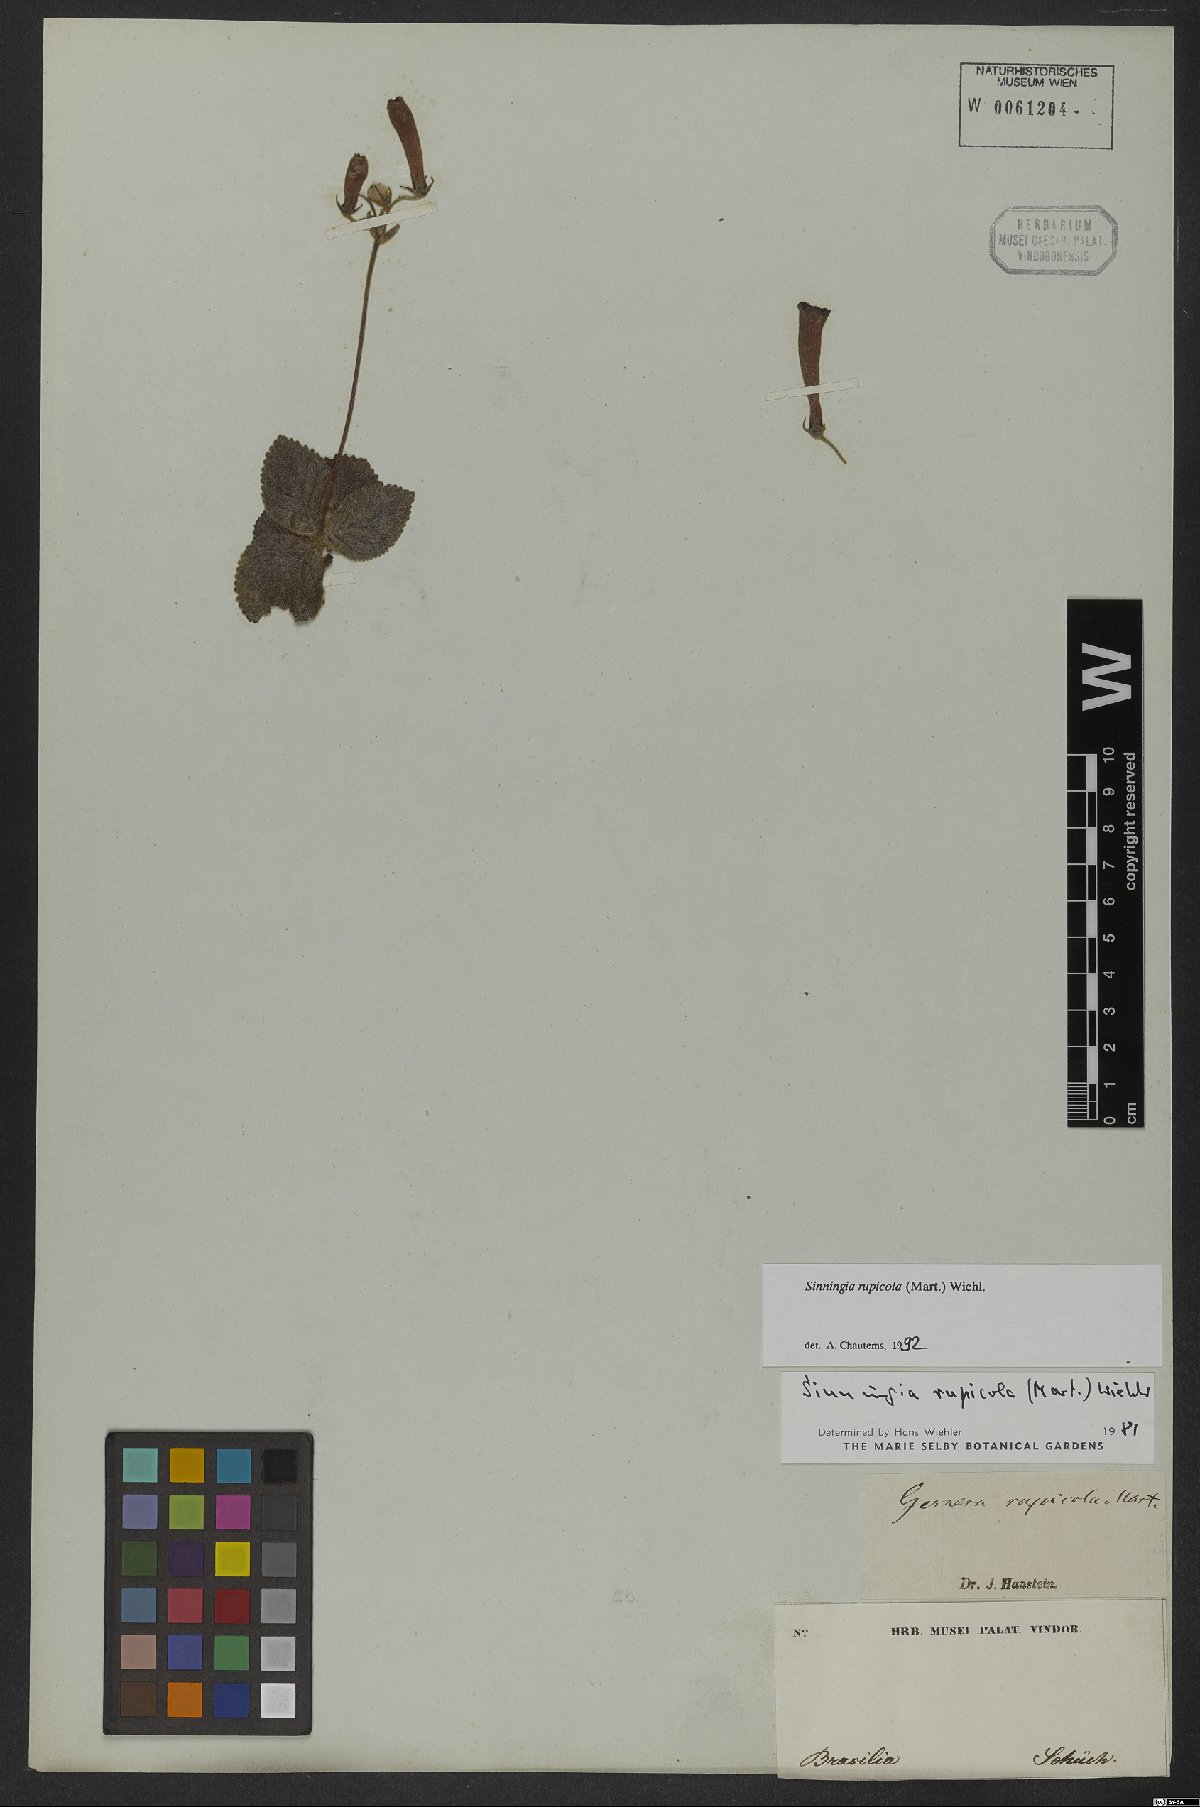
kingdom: Plantae
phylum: Tracheophyta
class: Magnoliopsida
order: Lamiales
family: Gesneriaceae
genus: Sinningia
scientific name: Sinningia rupicola
